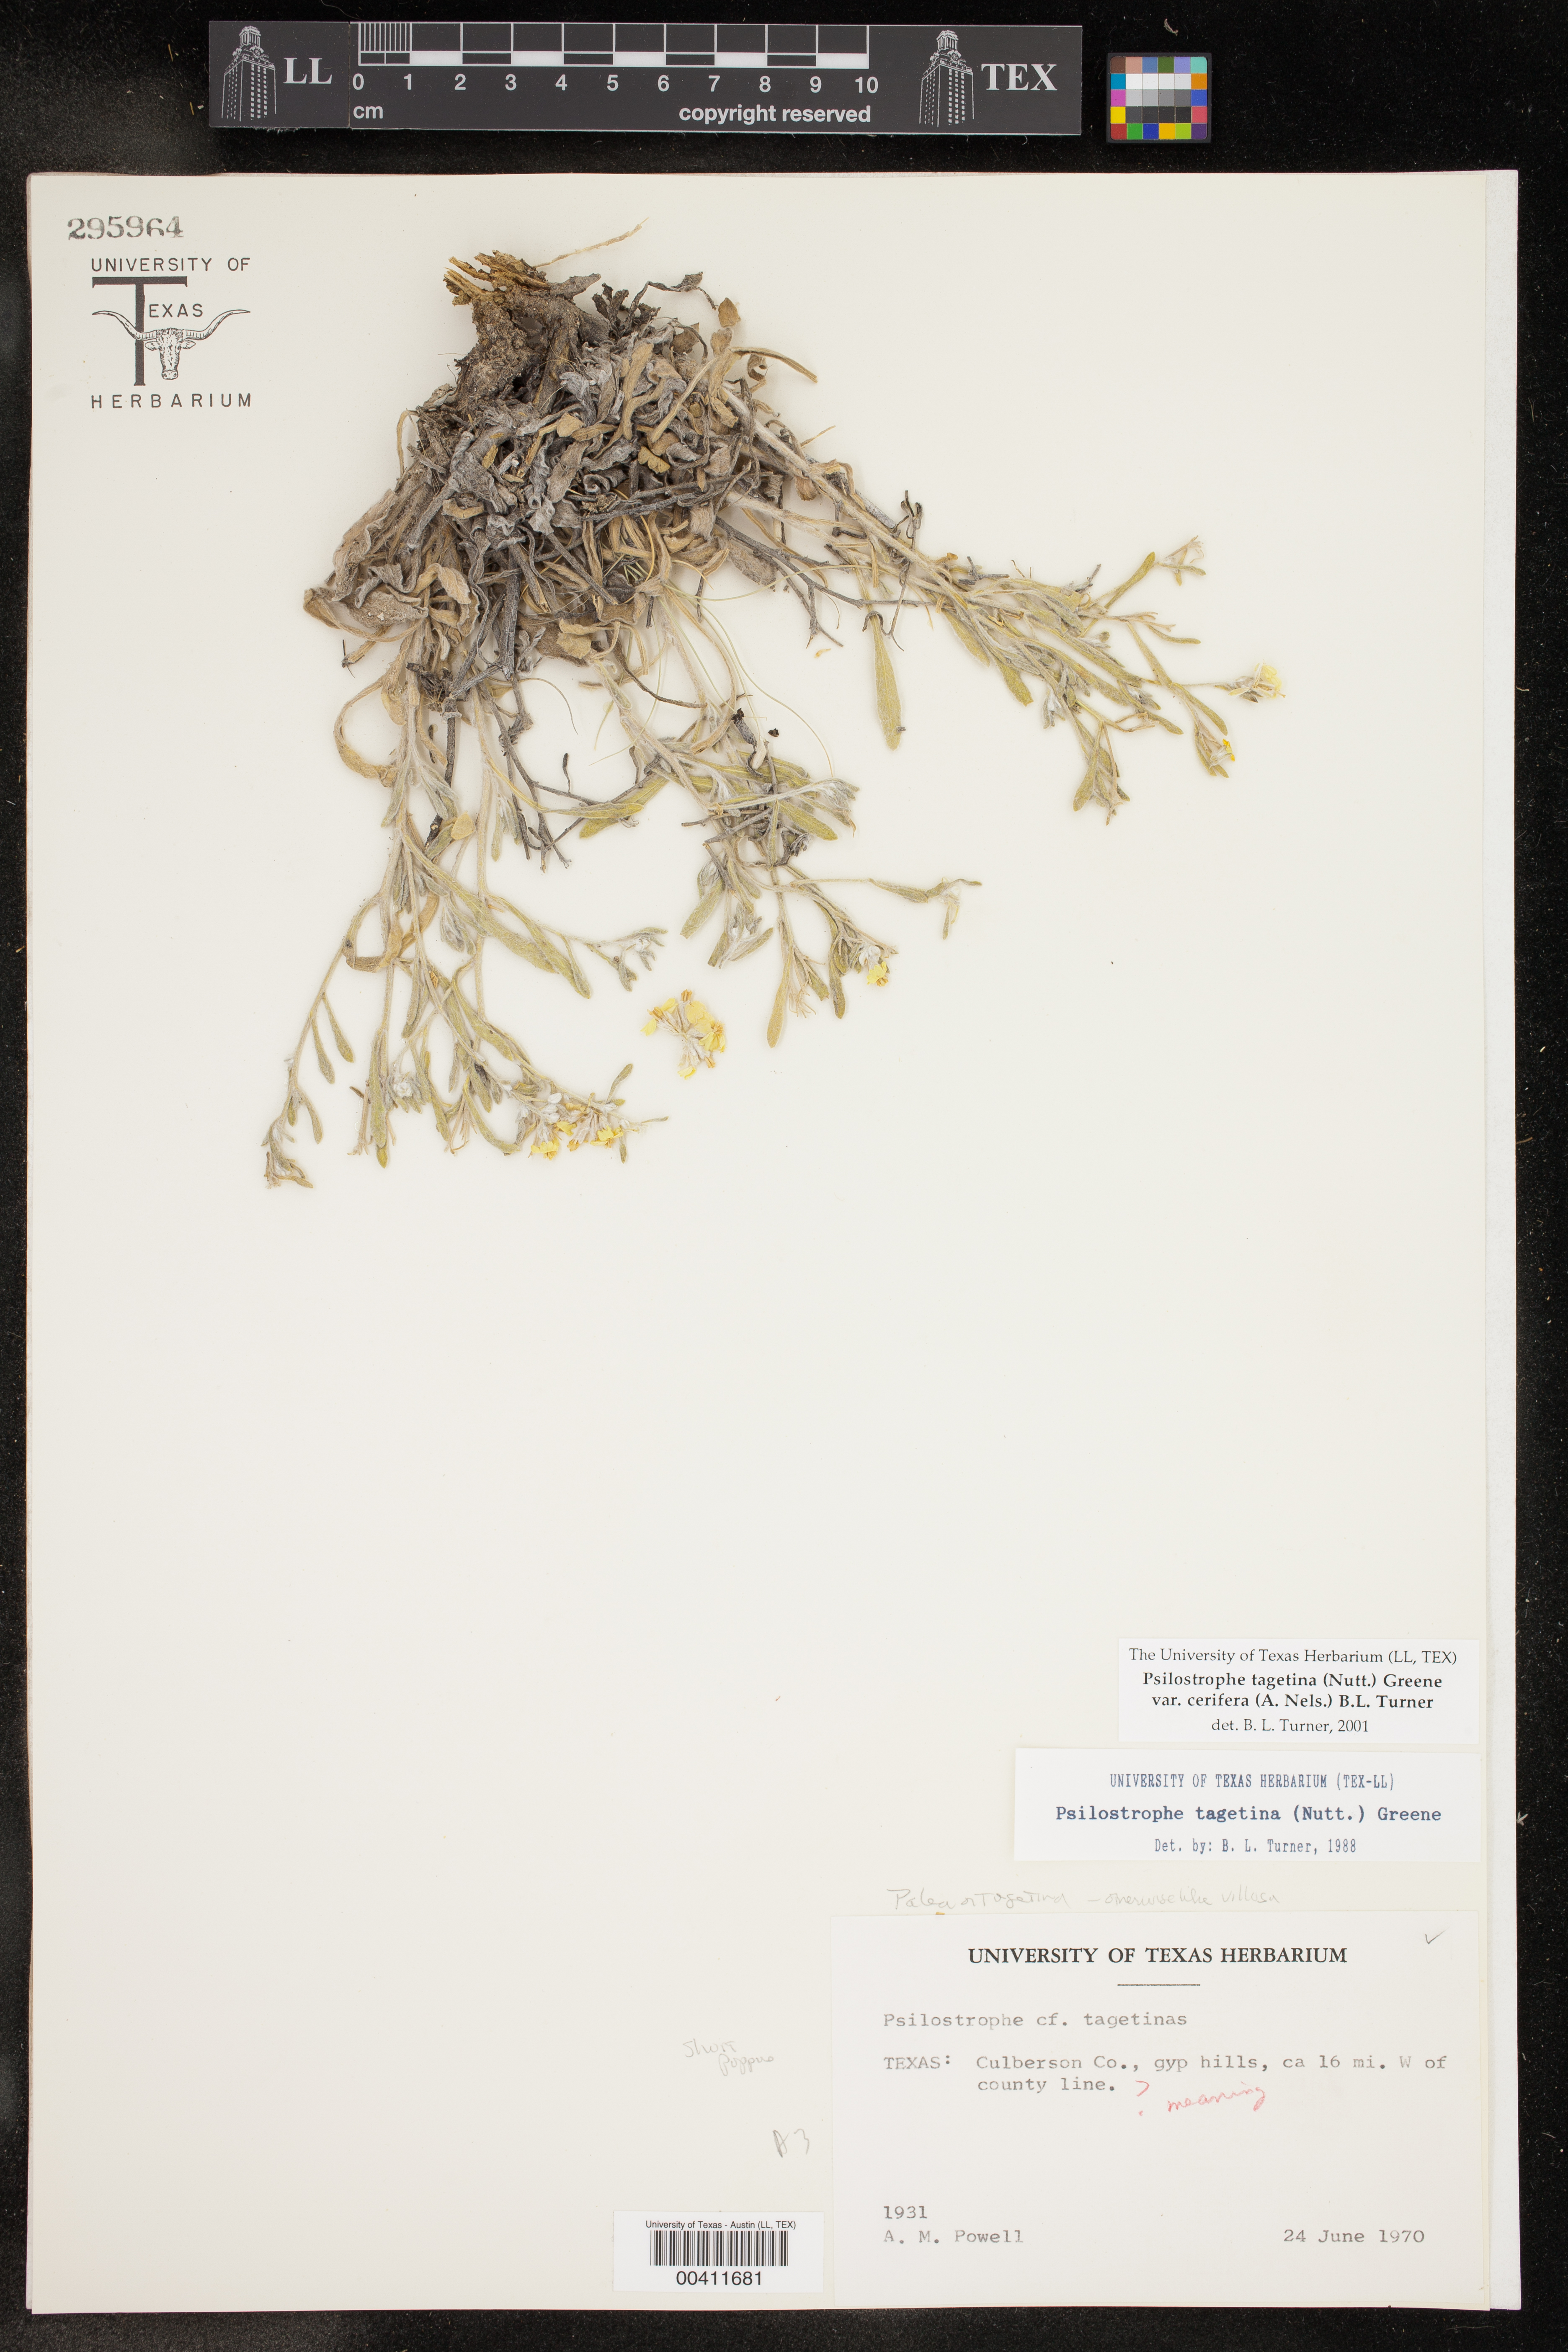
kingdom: Plantae
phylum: Tracheophyta
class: Magnoliopsida
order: Asterales
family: Asteraceae
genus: Psilostrophe
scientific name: Psilostrophe villosa
